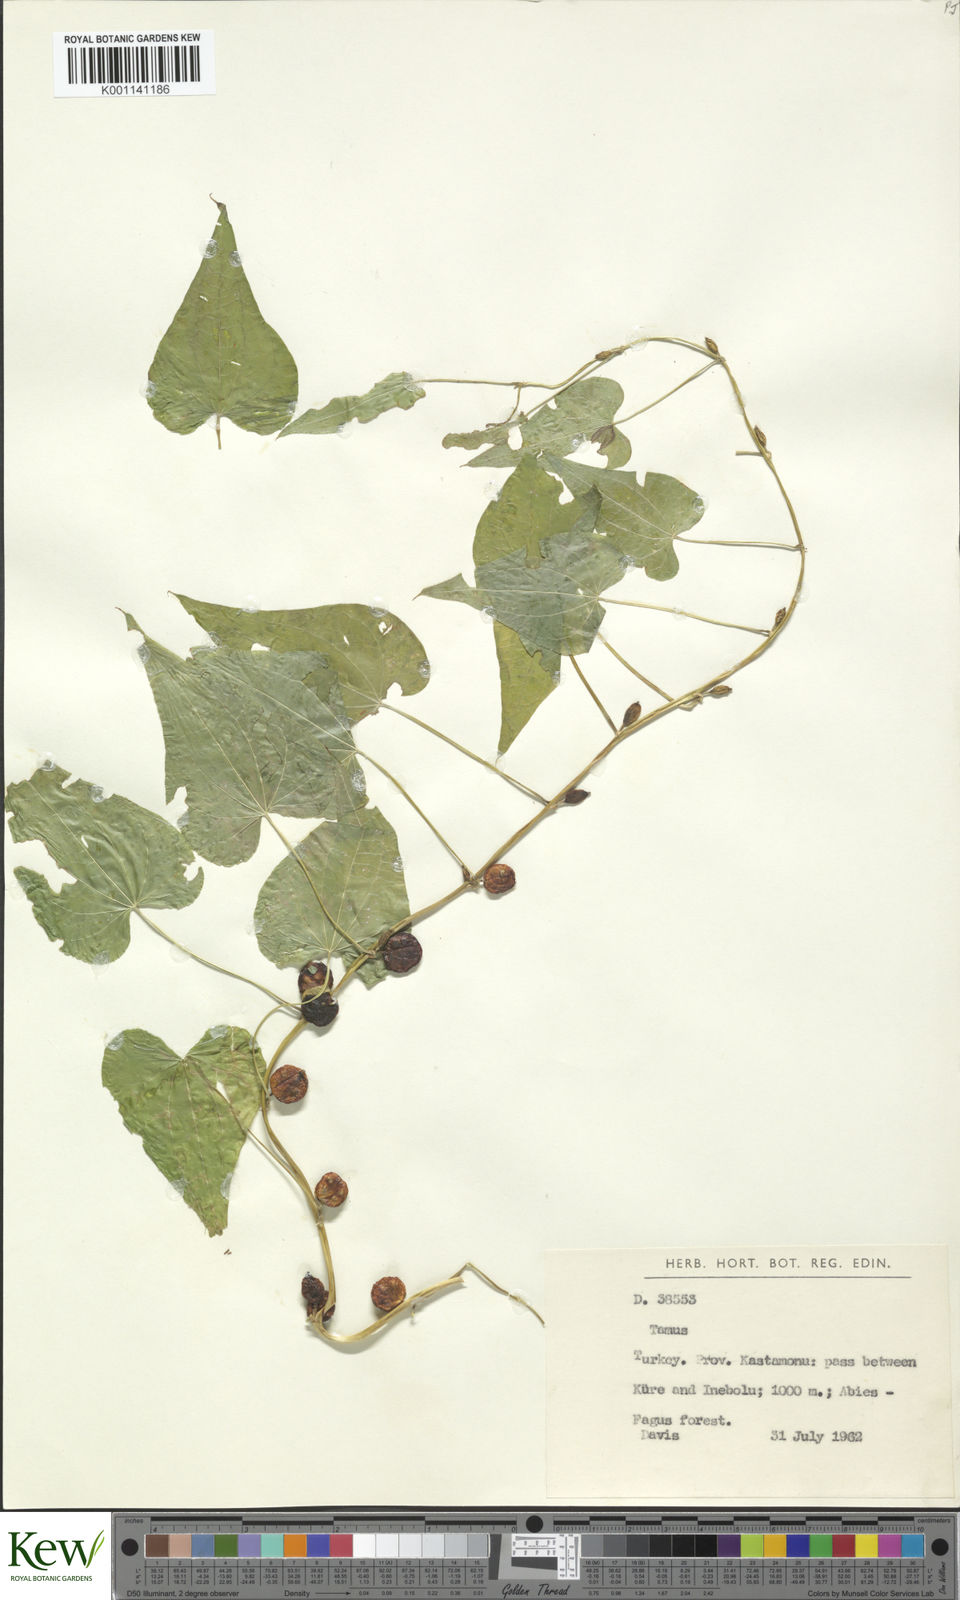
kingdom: Plantae
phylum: Tracheophyta
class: Liliopsida
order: Dioscoreales
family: Dioscoreaceae
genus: Dioscorea
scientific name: Dioscorea communis
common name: Black-bindweed
